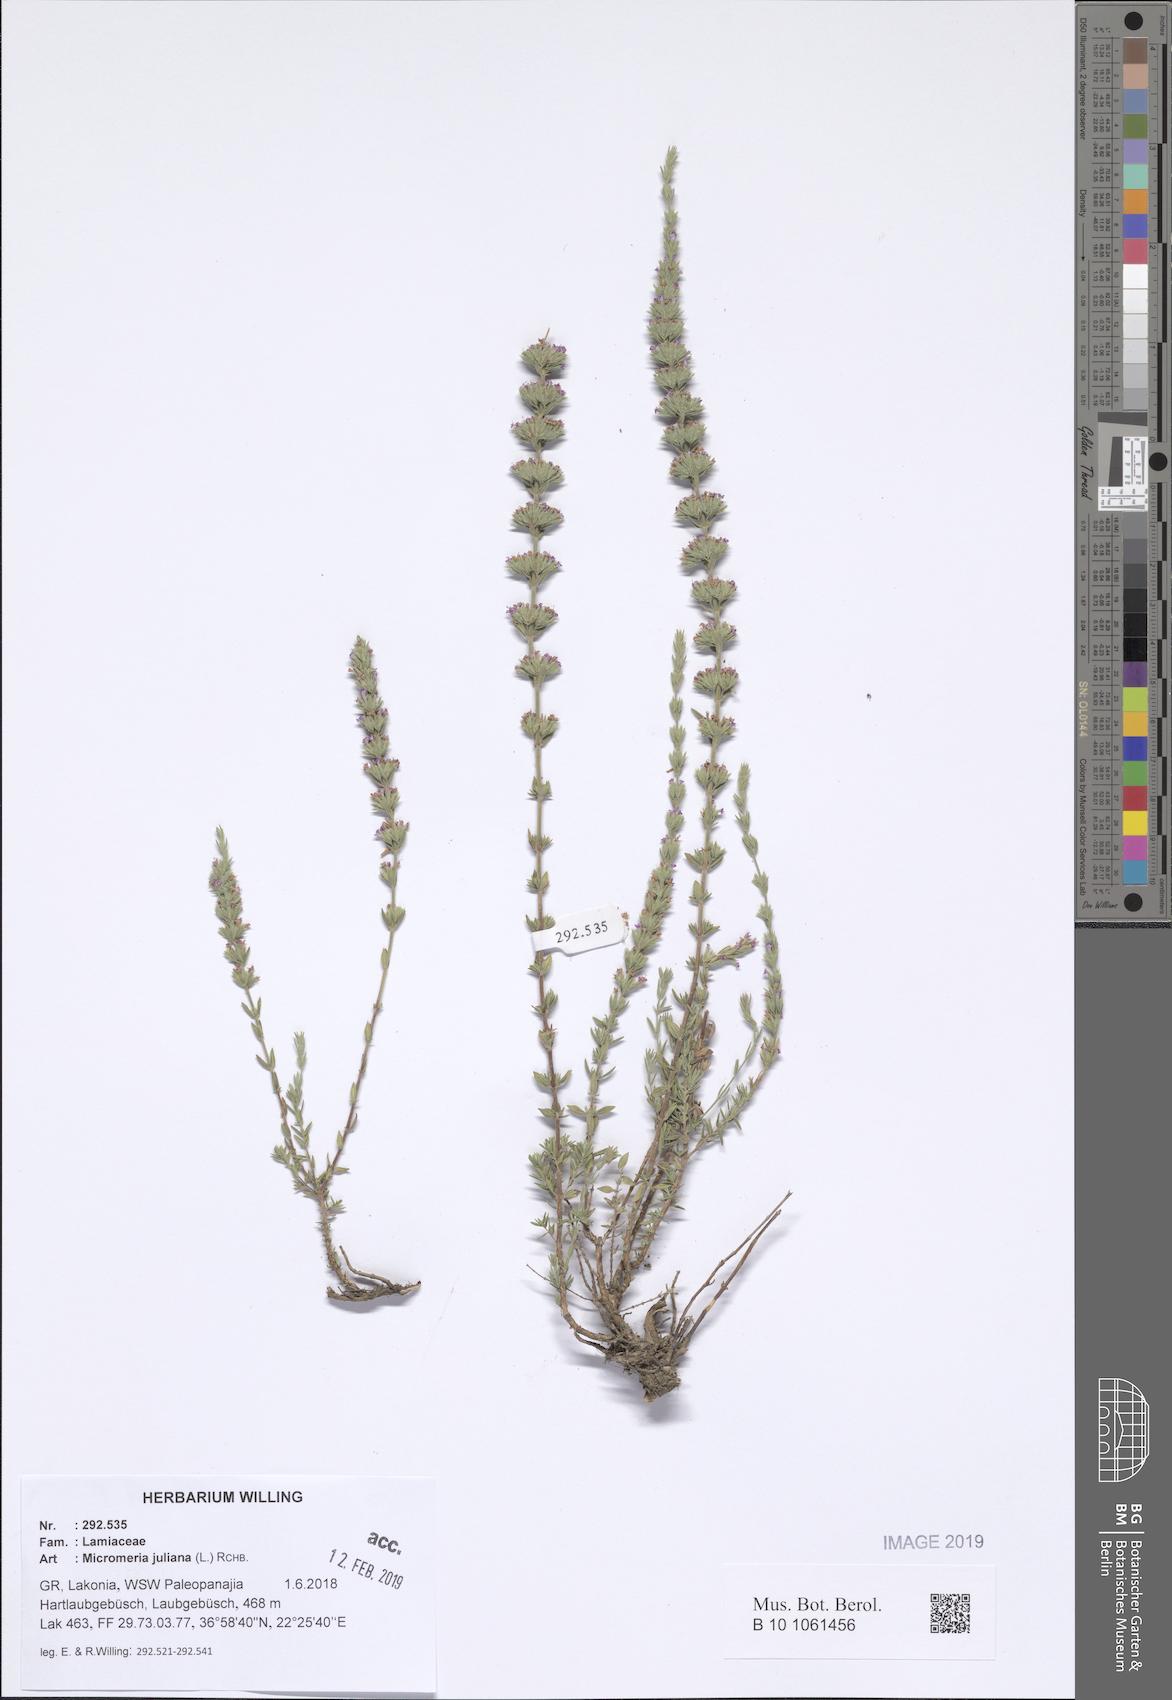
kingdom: Plantae
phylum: Tracheophyta
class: Magnoliopsida
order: Lamiales
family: Lamiaceae
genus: Micromeria
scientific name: Micromeria juliana
